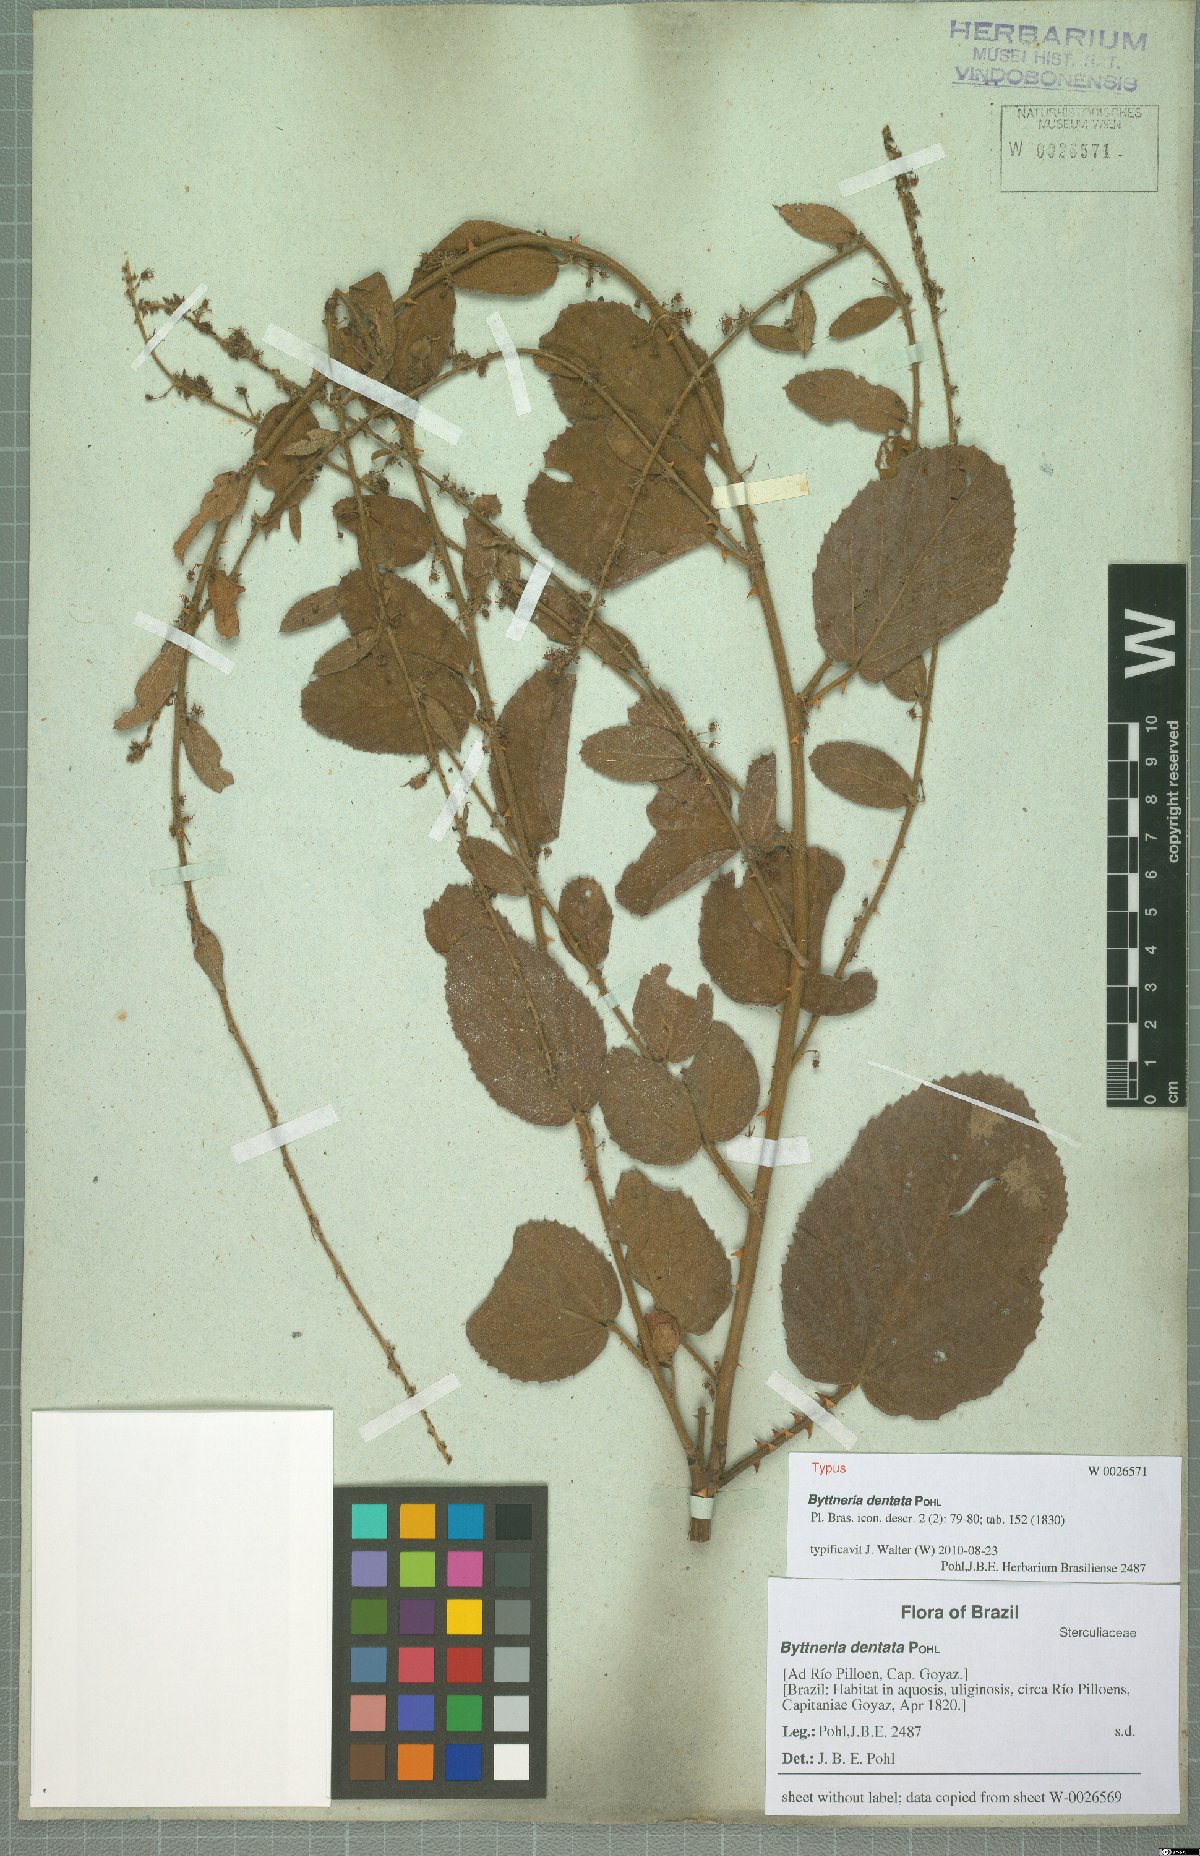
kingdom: Plantae
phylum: Tracheophyta
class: Magnoliopsida
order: Malvales
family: Malvaceae
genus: Byttneria
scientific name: Byttneria dentata
